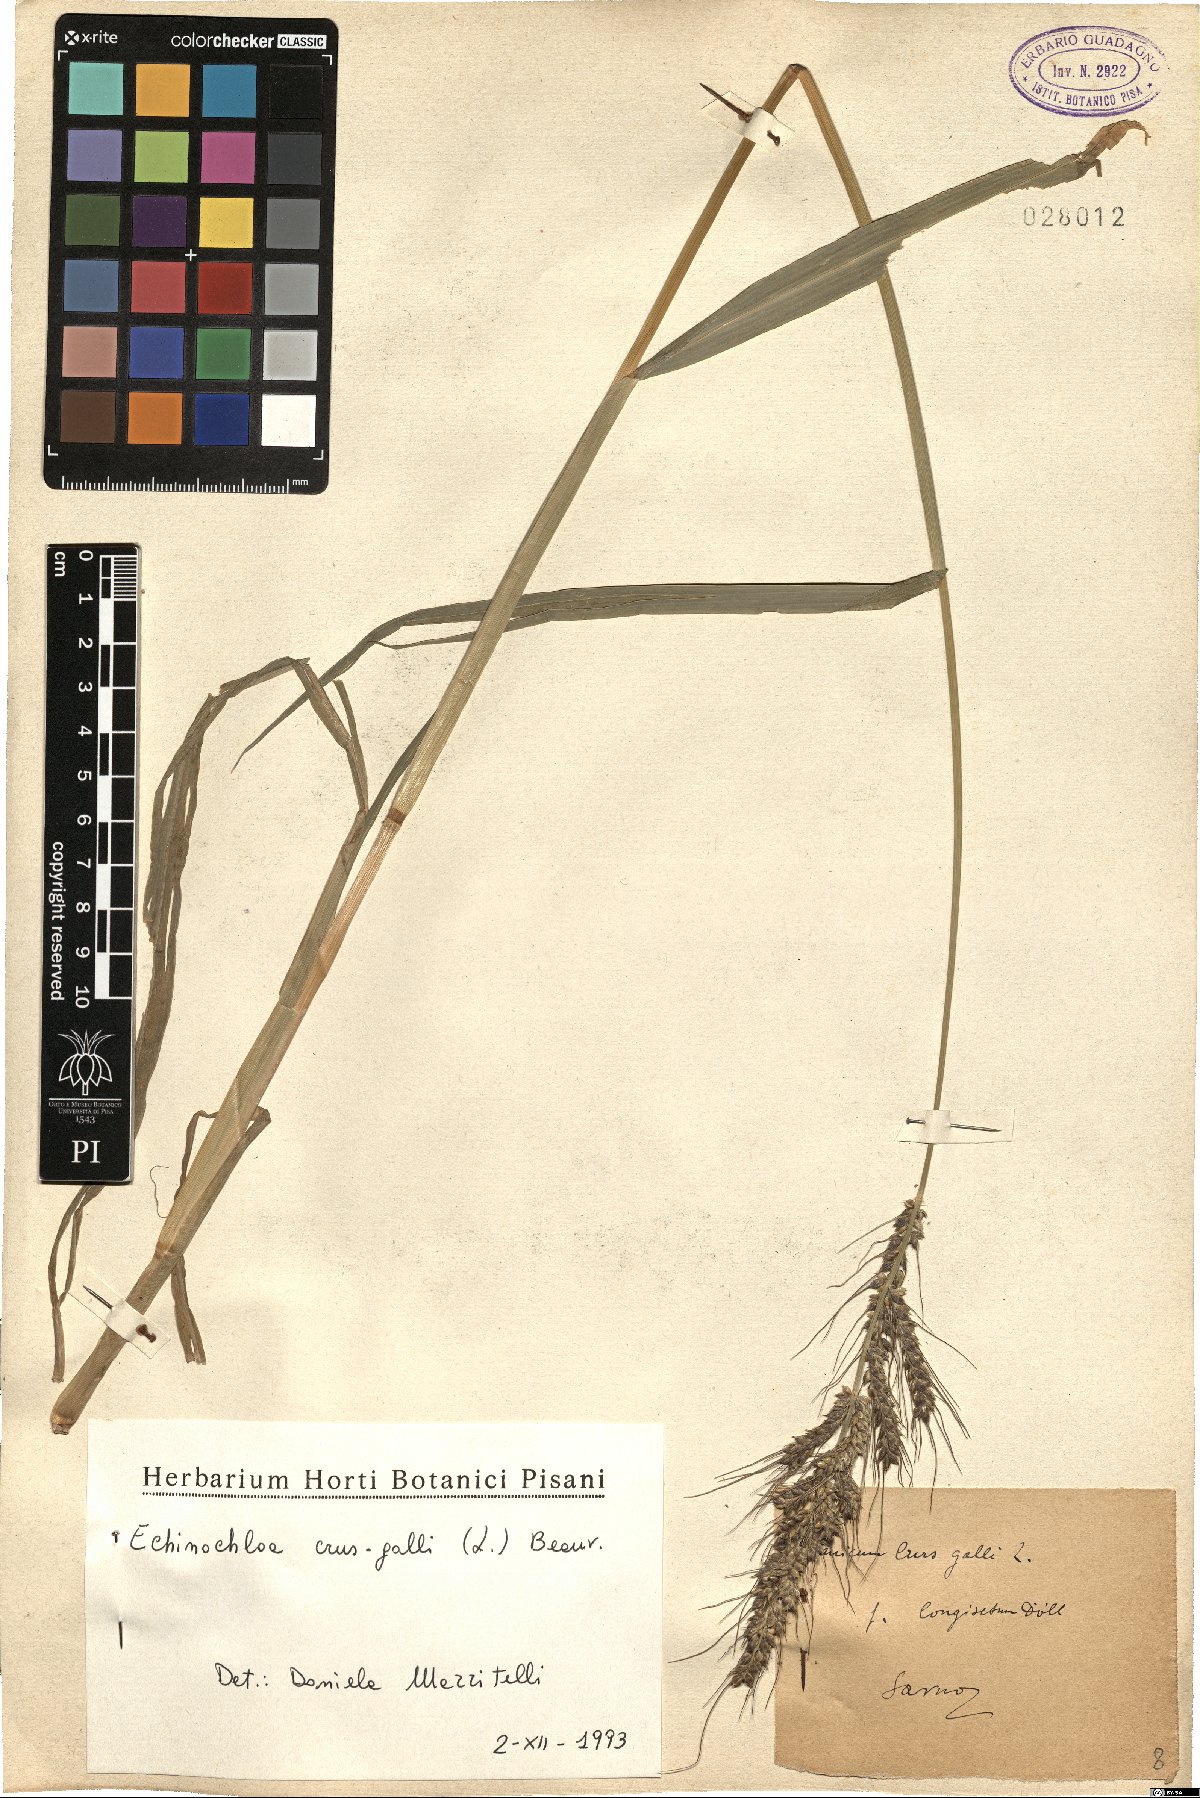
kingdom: Plantae
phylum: Tracheophyta
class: Liliopsida
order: Poales
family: Poaceae
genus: Echinochloa
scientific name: Echinochloa crus-galli
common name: Cockspur
